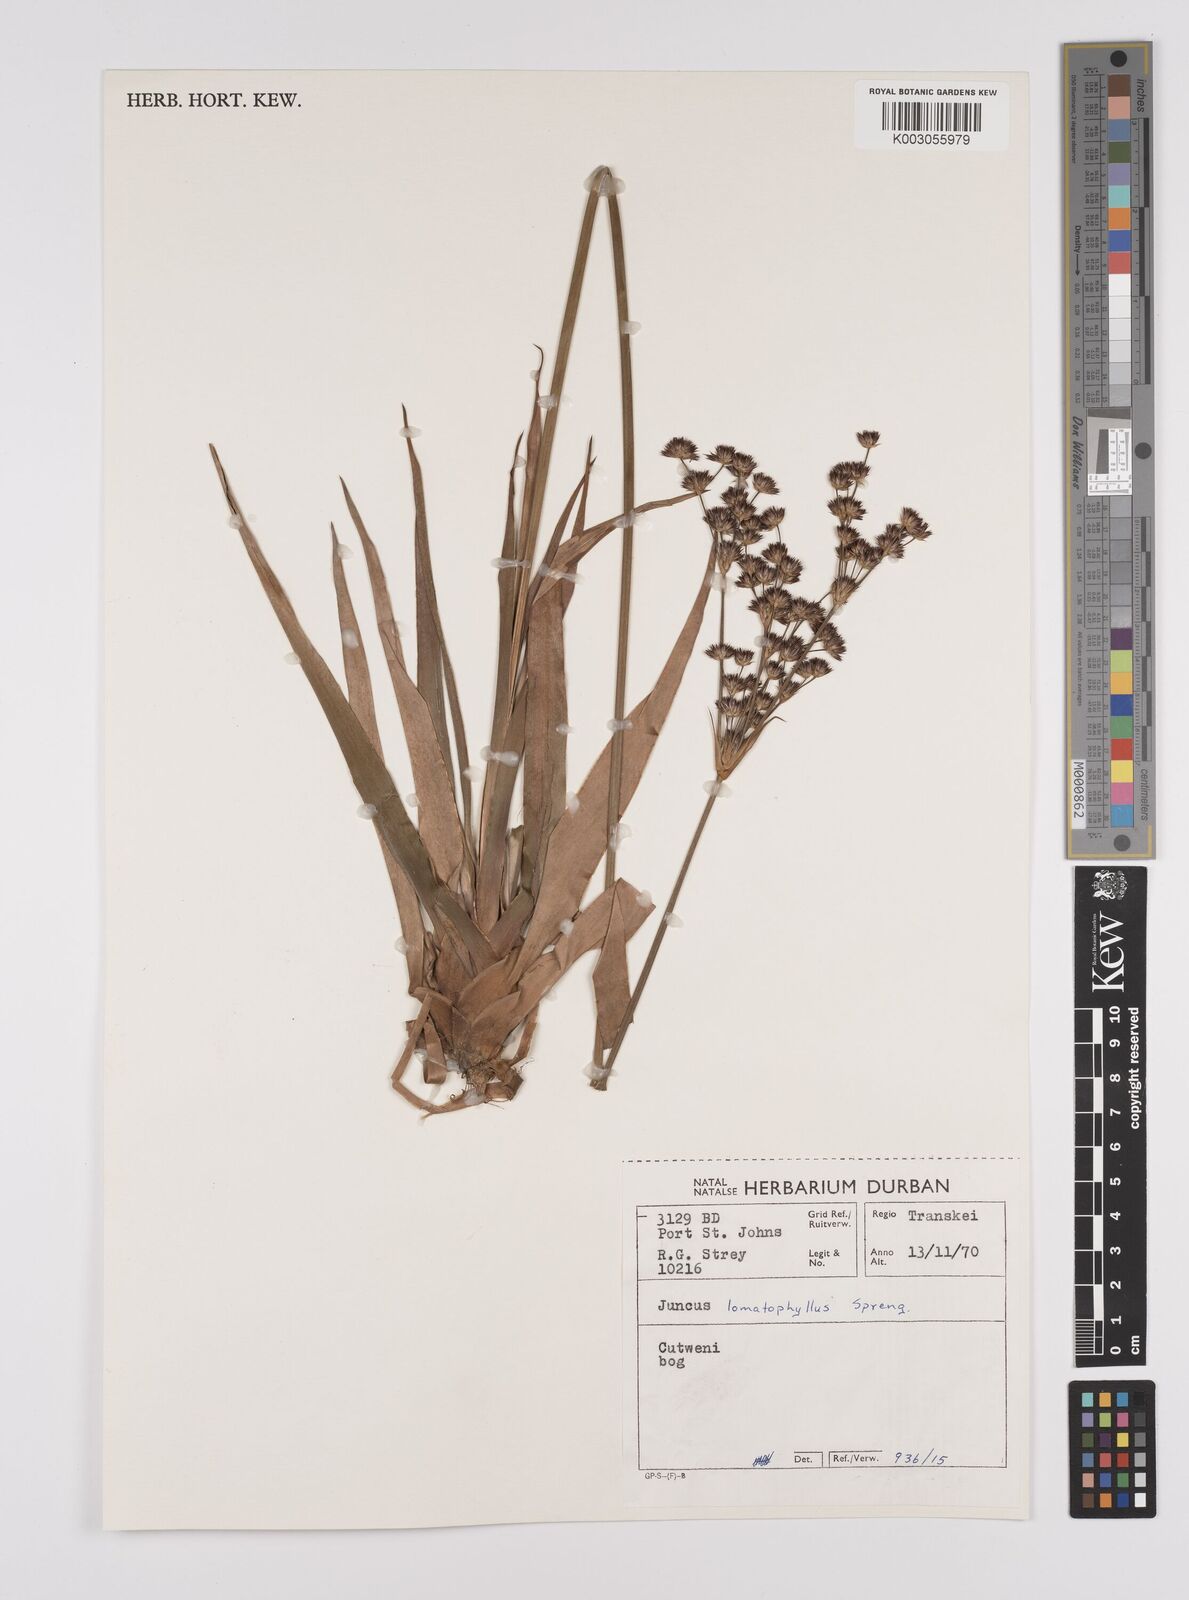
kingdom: Plantae
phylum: Tracheophyta
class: Liliopsida
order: Poales
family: Juncaceae
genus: Juncus
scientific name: Juncus lomatophyllus
